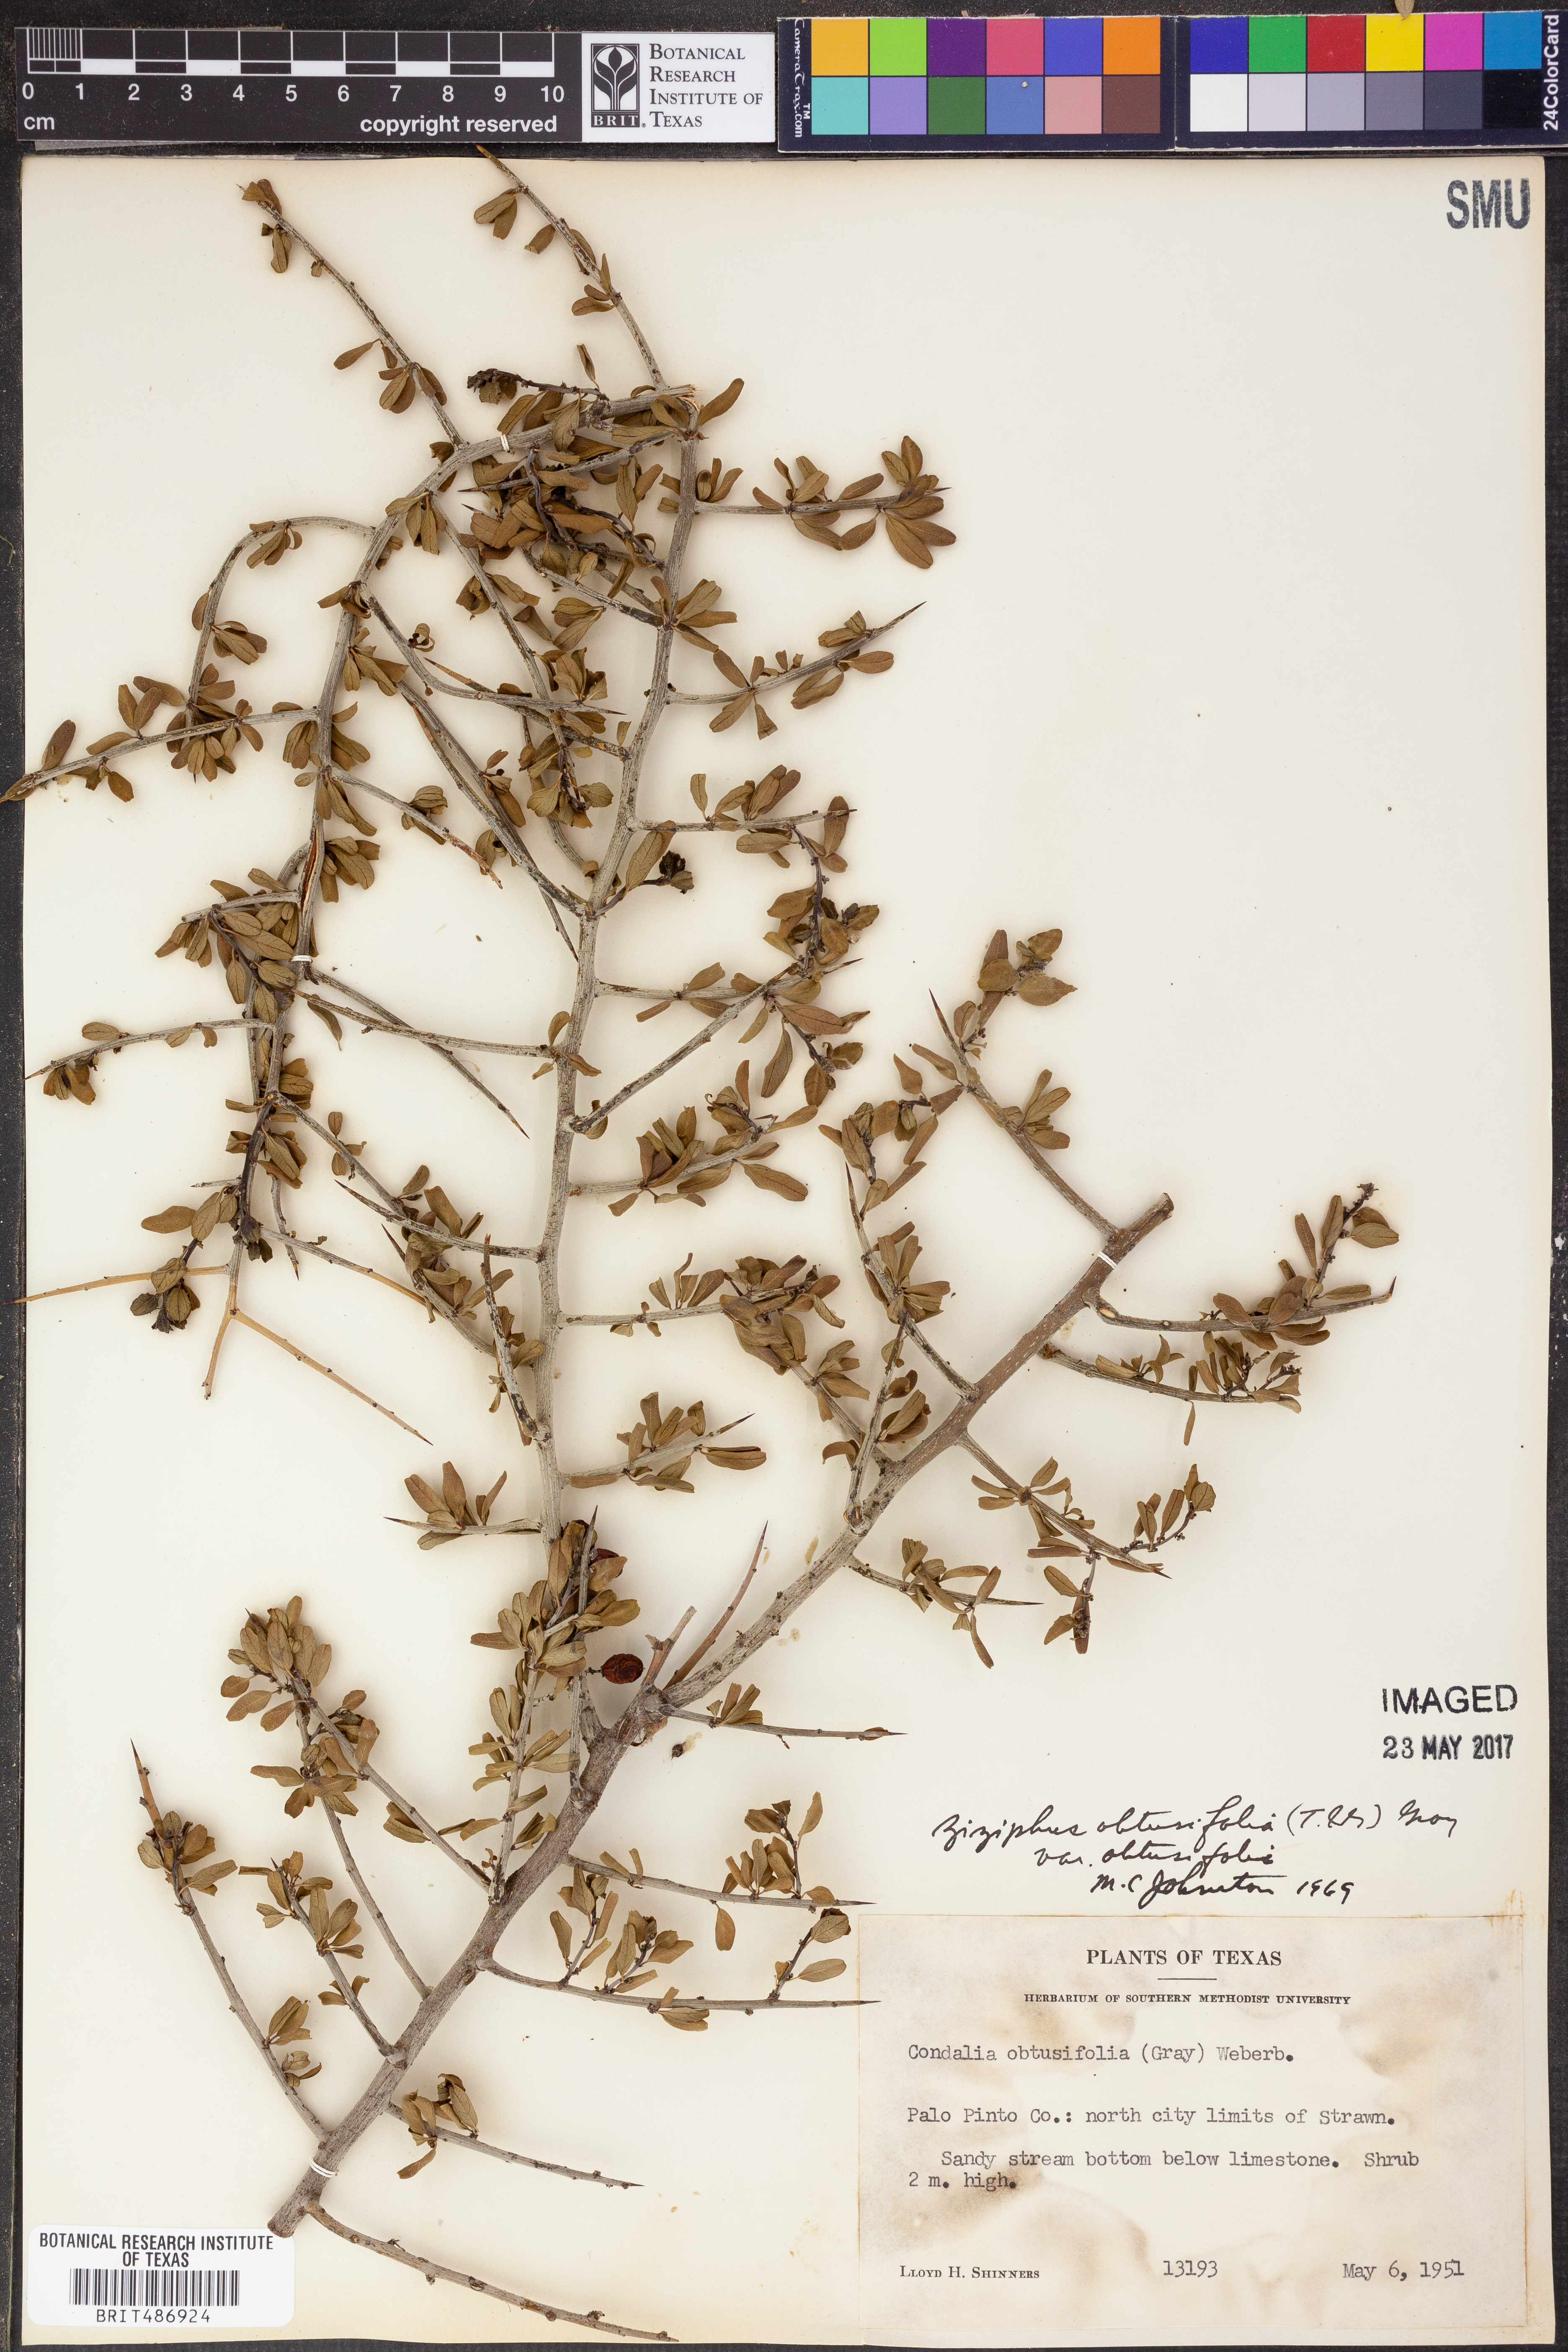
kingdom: Plantae
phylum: Tracheophyta
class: Magnoliopsida
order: Rosales
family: Rhamnaceae
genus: Sarcomphalus
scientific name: Sarcomphalus obtusifolius
